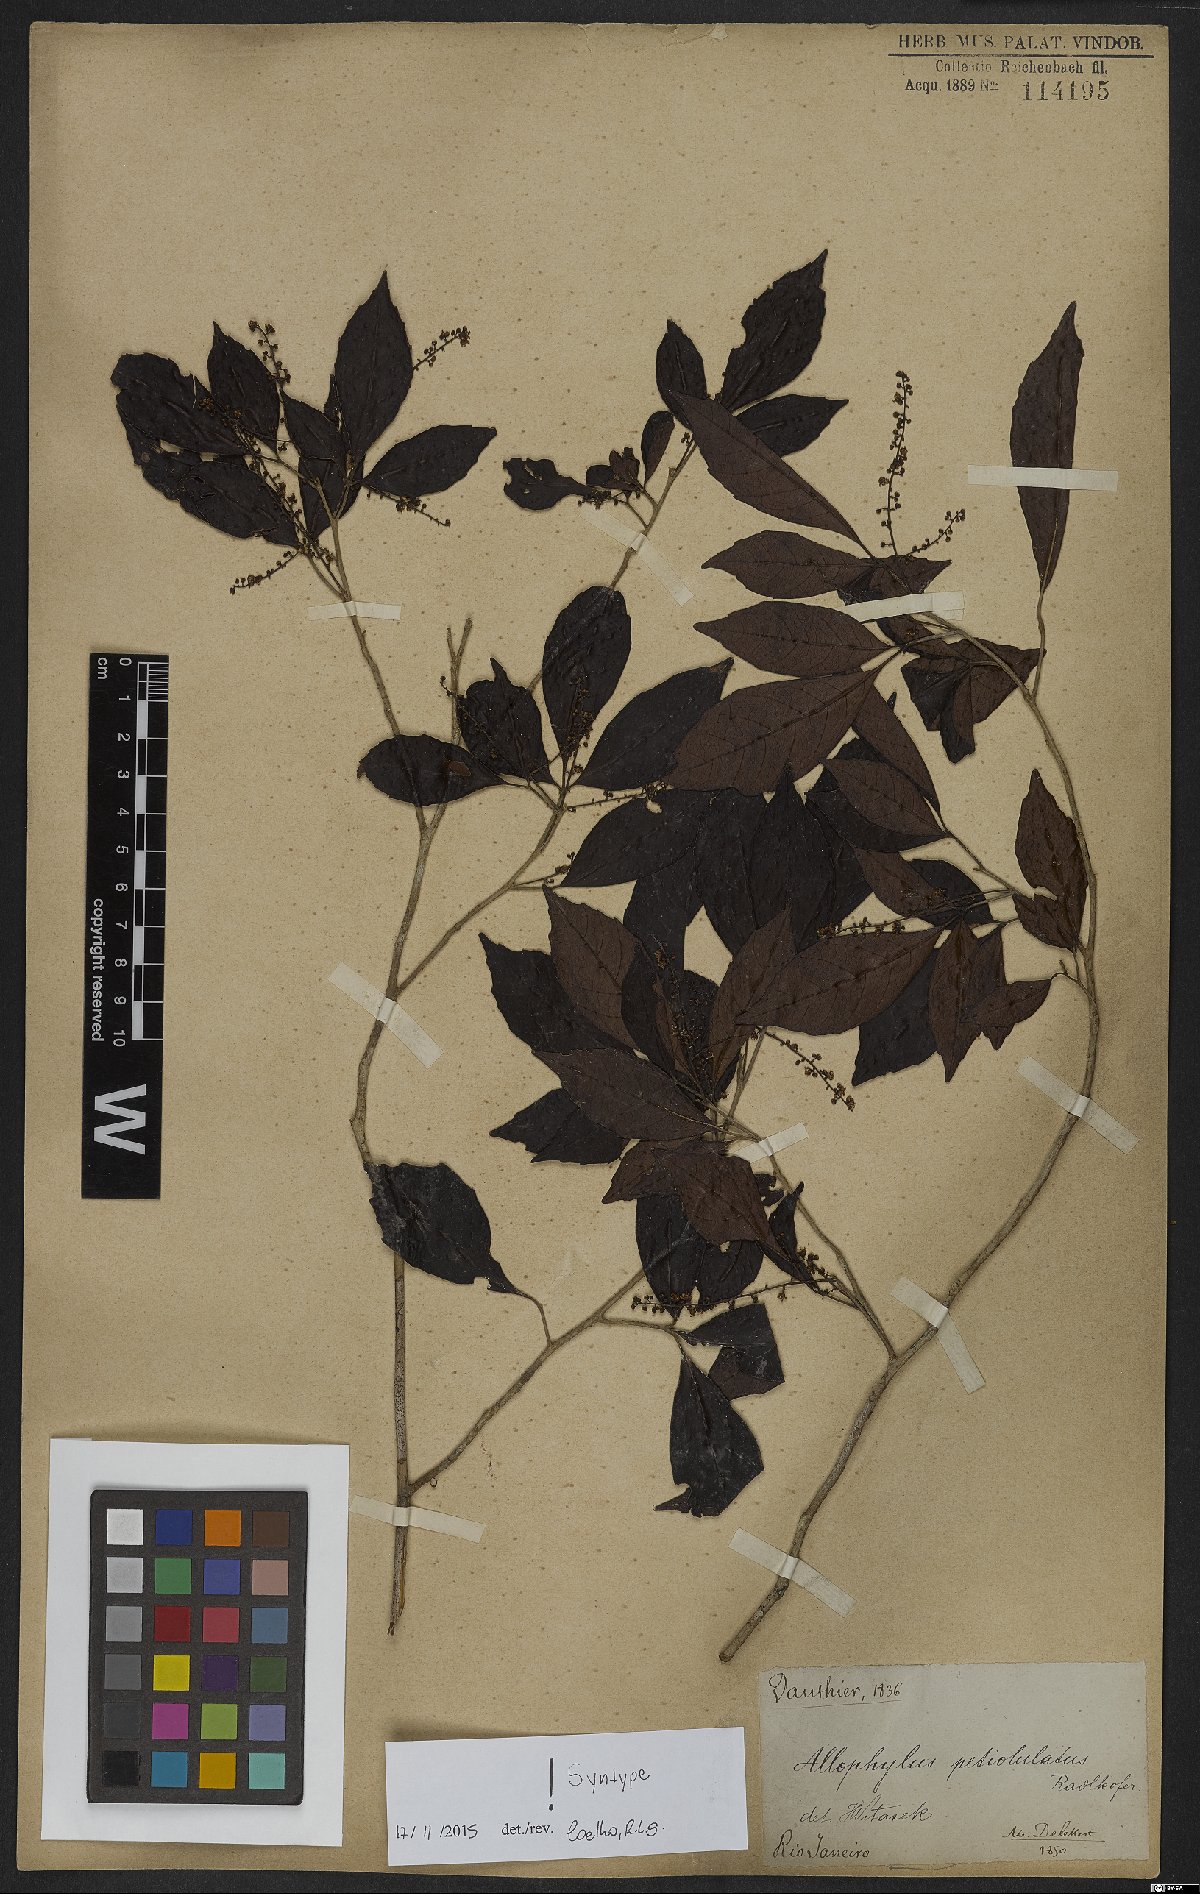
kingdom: Plantae
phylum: Tracheophyta
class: Magnoliopsida
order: Sapindales
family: Sapindaceae
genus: Allophylus
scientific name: Allophylus petiolulatus
